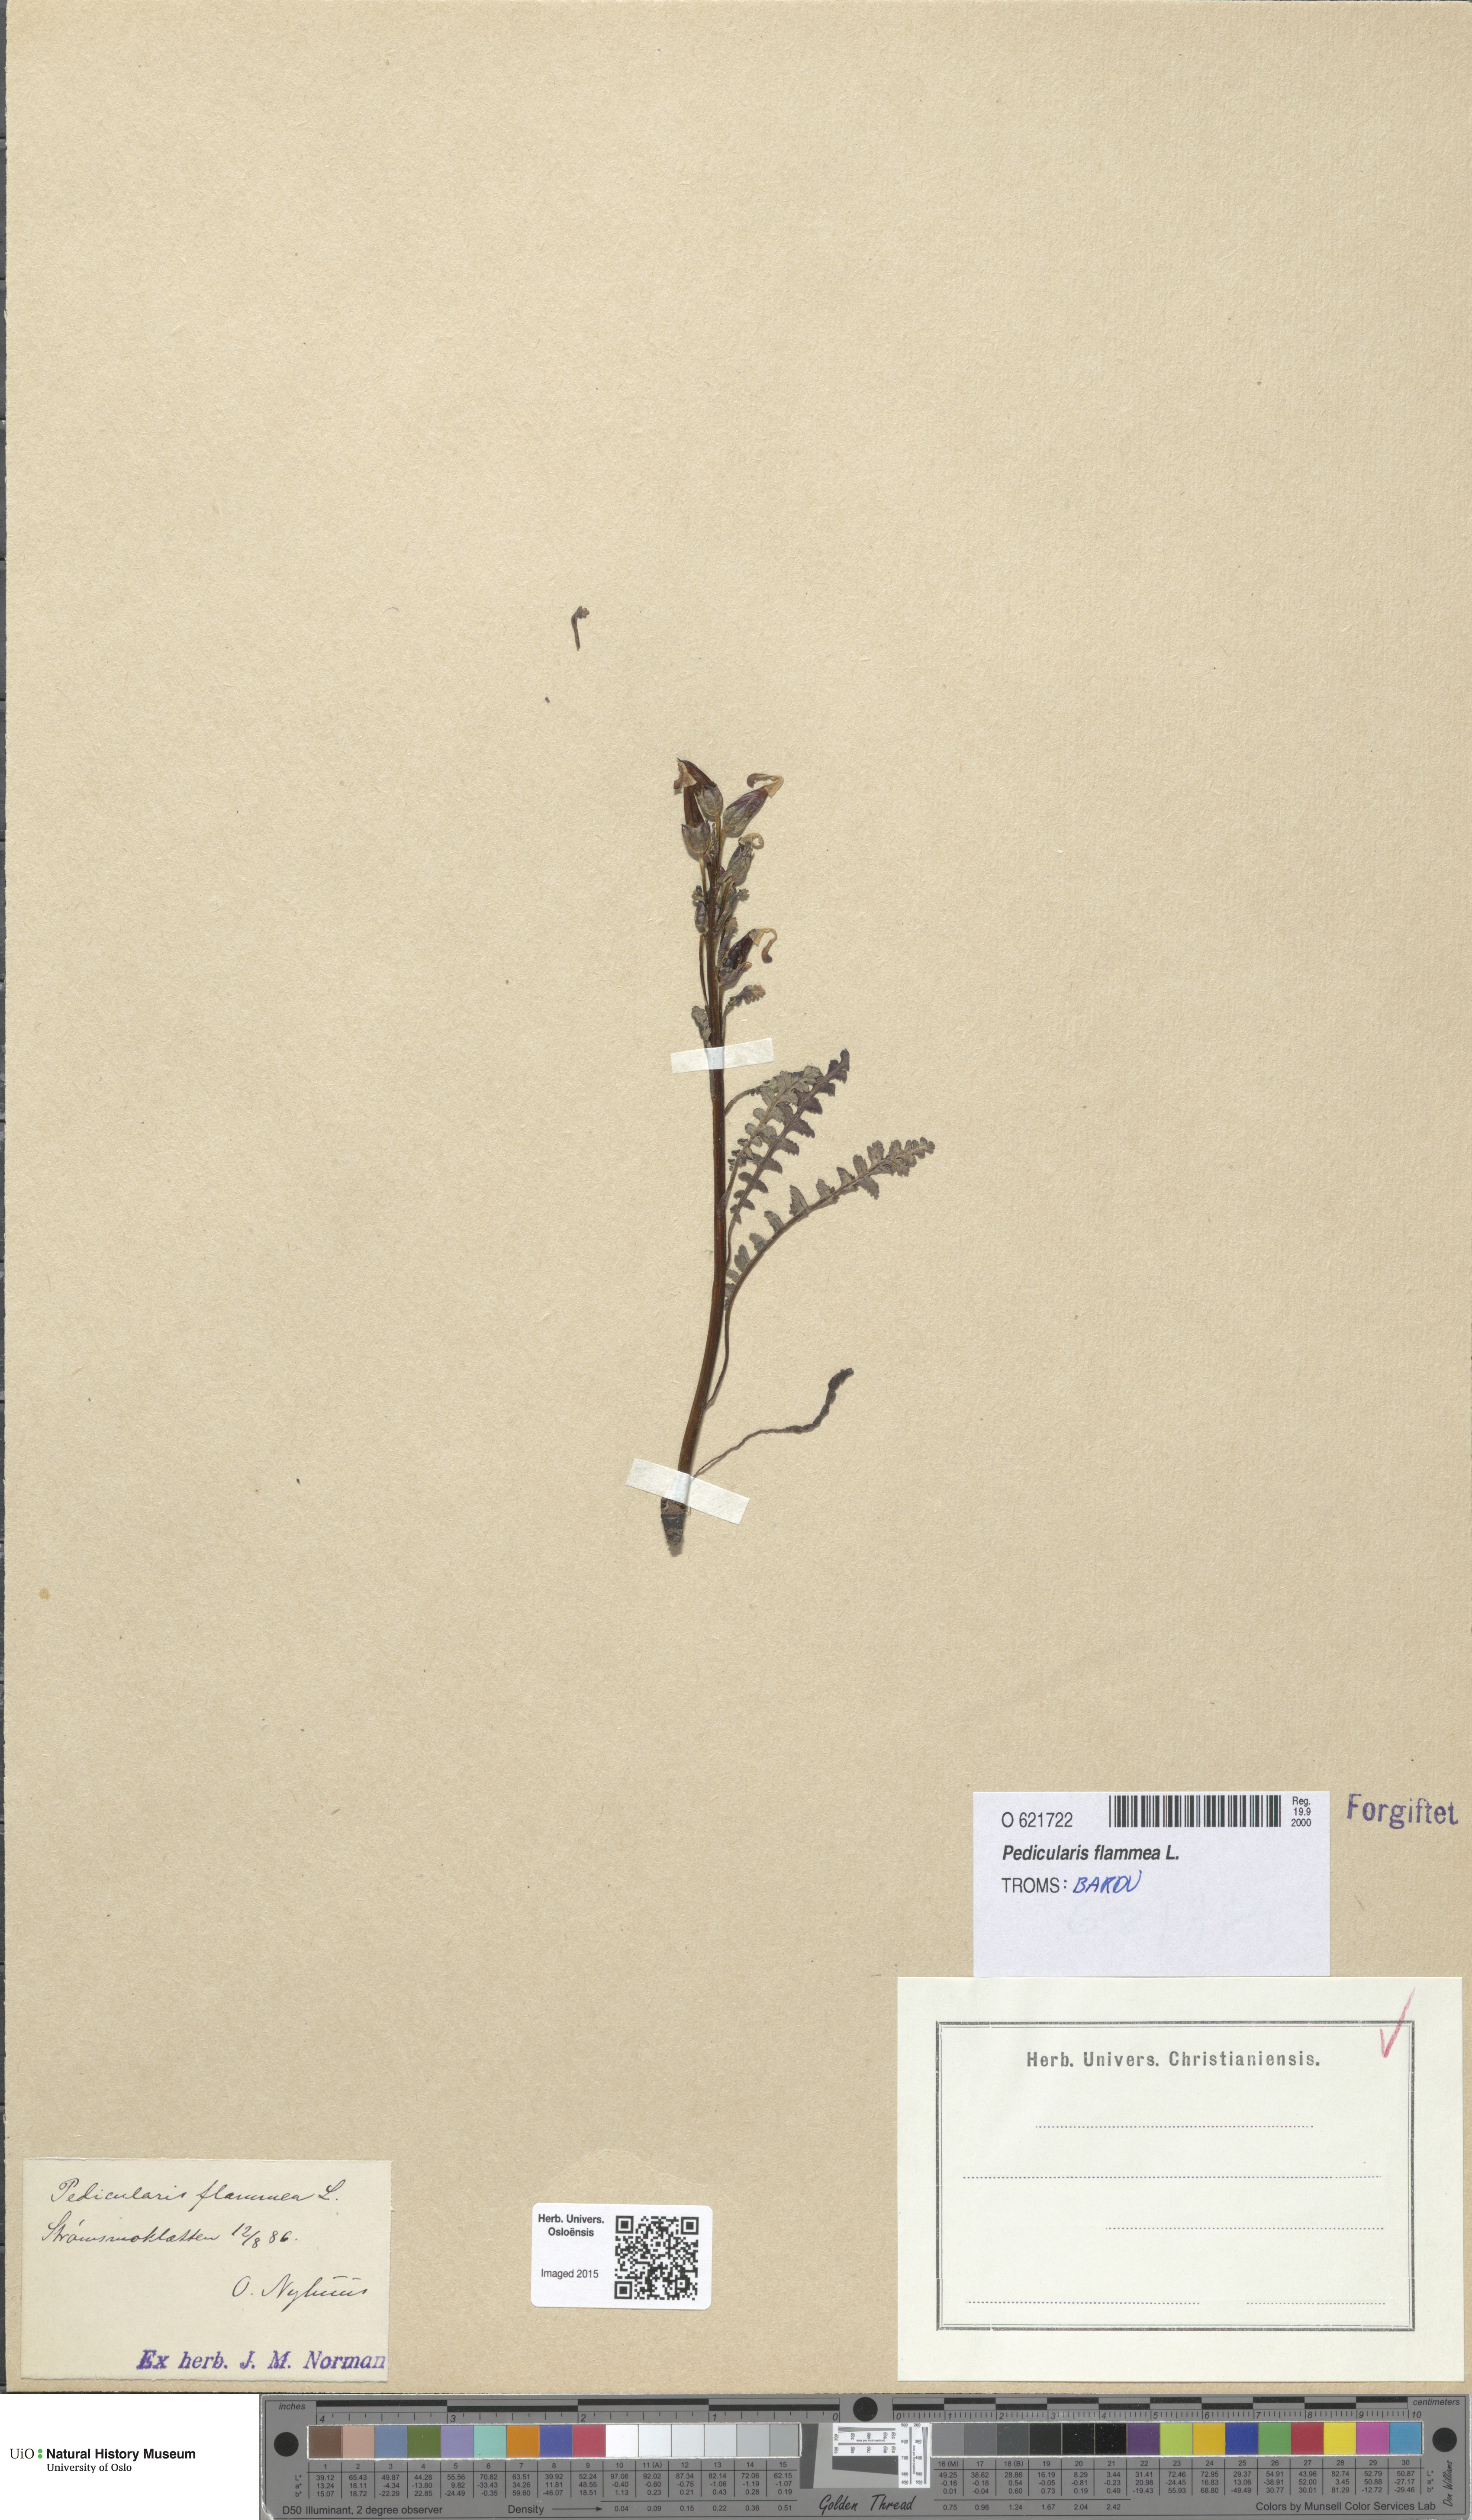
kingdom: Plantae
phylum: Tracheophyta
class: Magnoliopsida
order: Lamiales
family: Orobanchaceae
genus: Pedicularis
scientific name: Pedicularis flammea
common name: Flame-coloured lousewort
